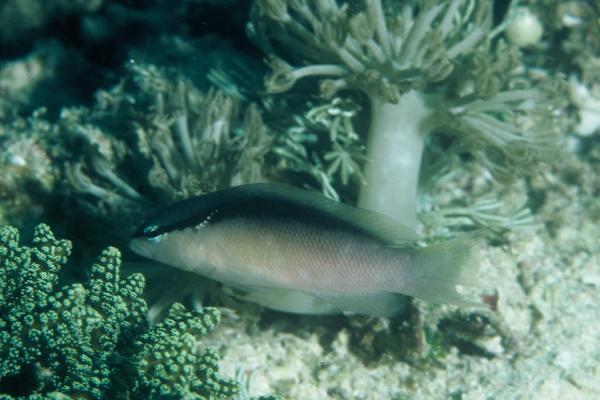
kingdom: Animalia
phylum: Chordata
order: Perciformes
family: Pseudochromidae
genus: Pseudochromis
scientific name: Pseudochromis perspicillatus
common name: Southeast asian blackstripe dottyback
